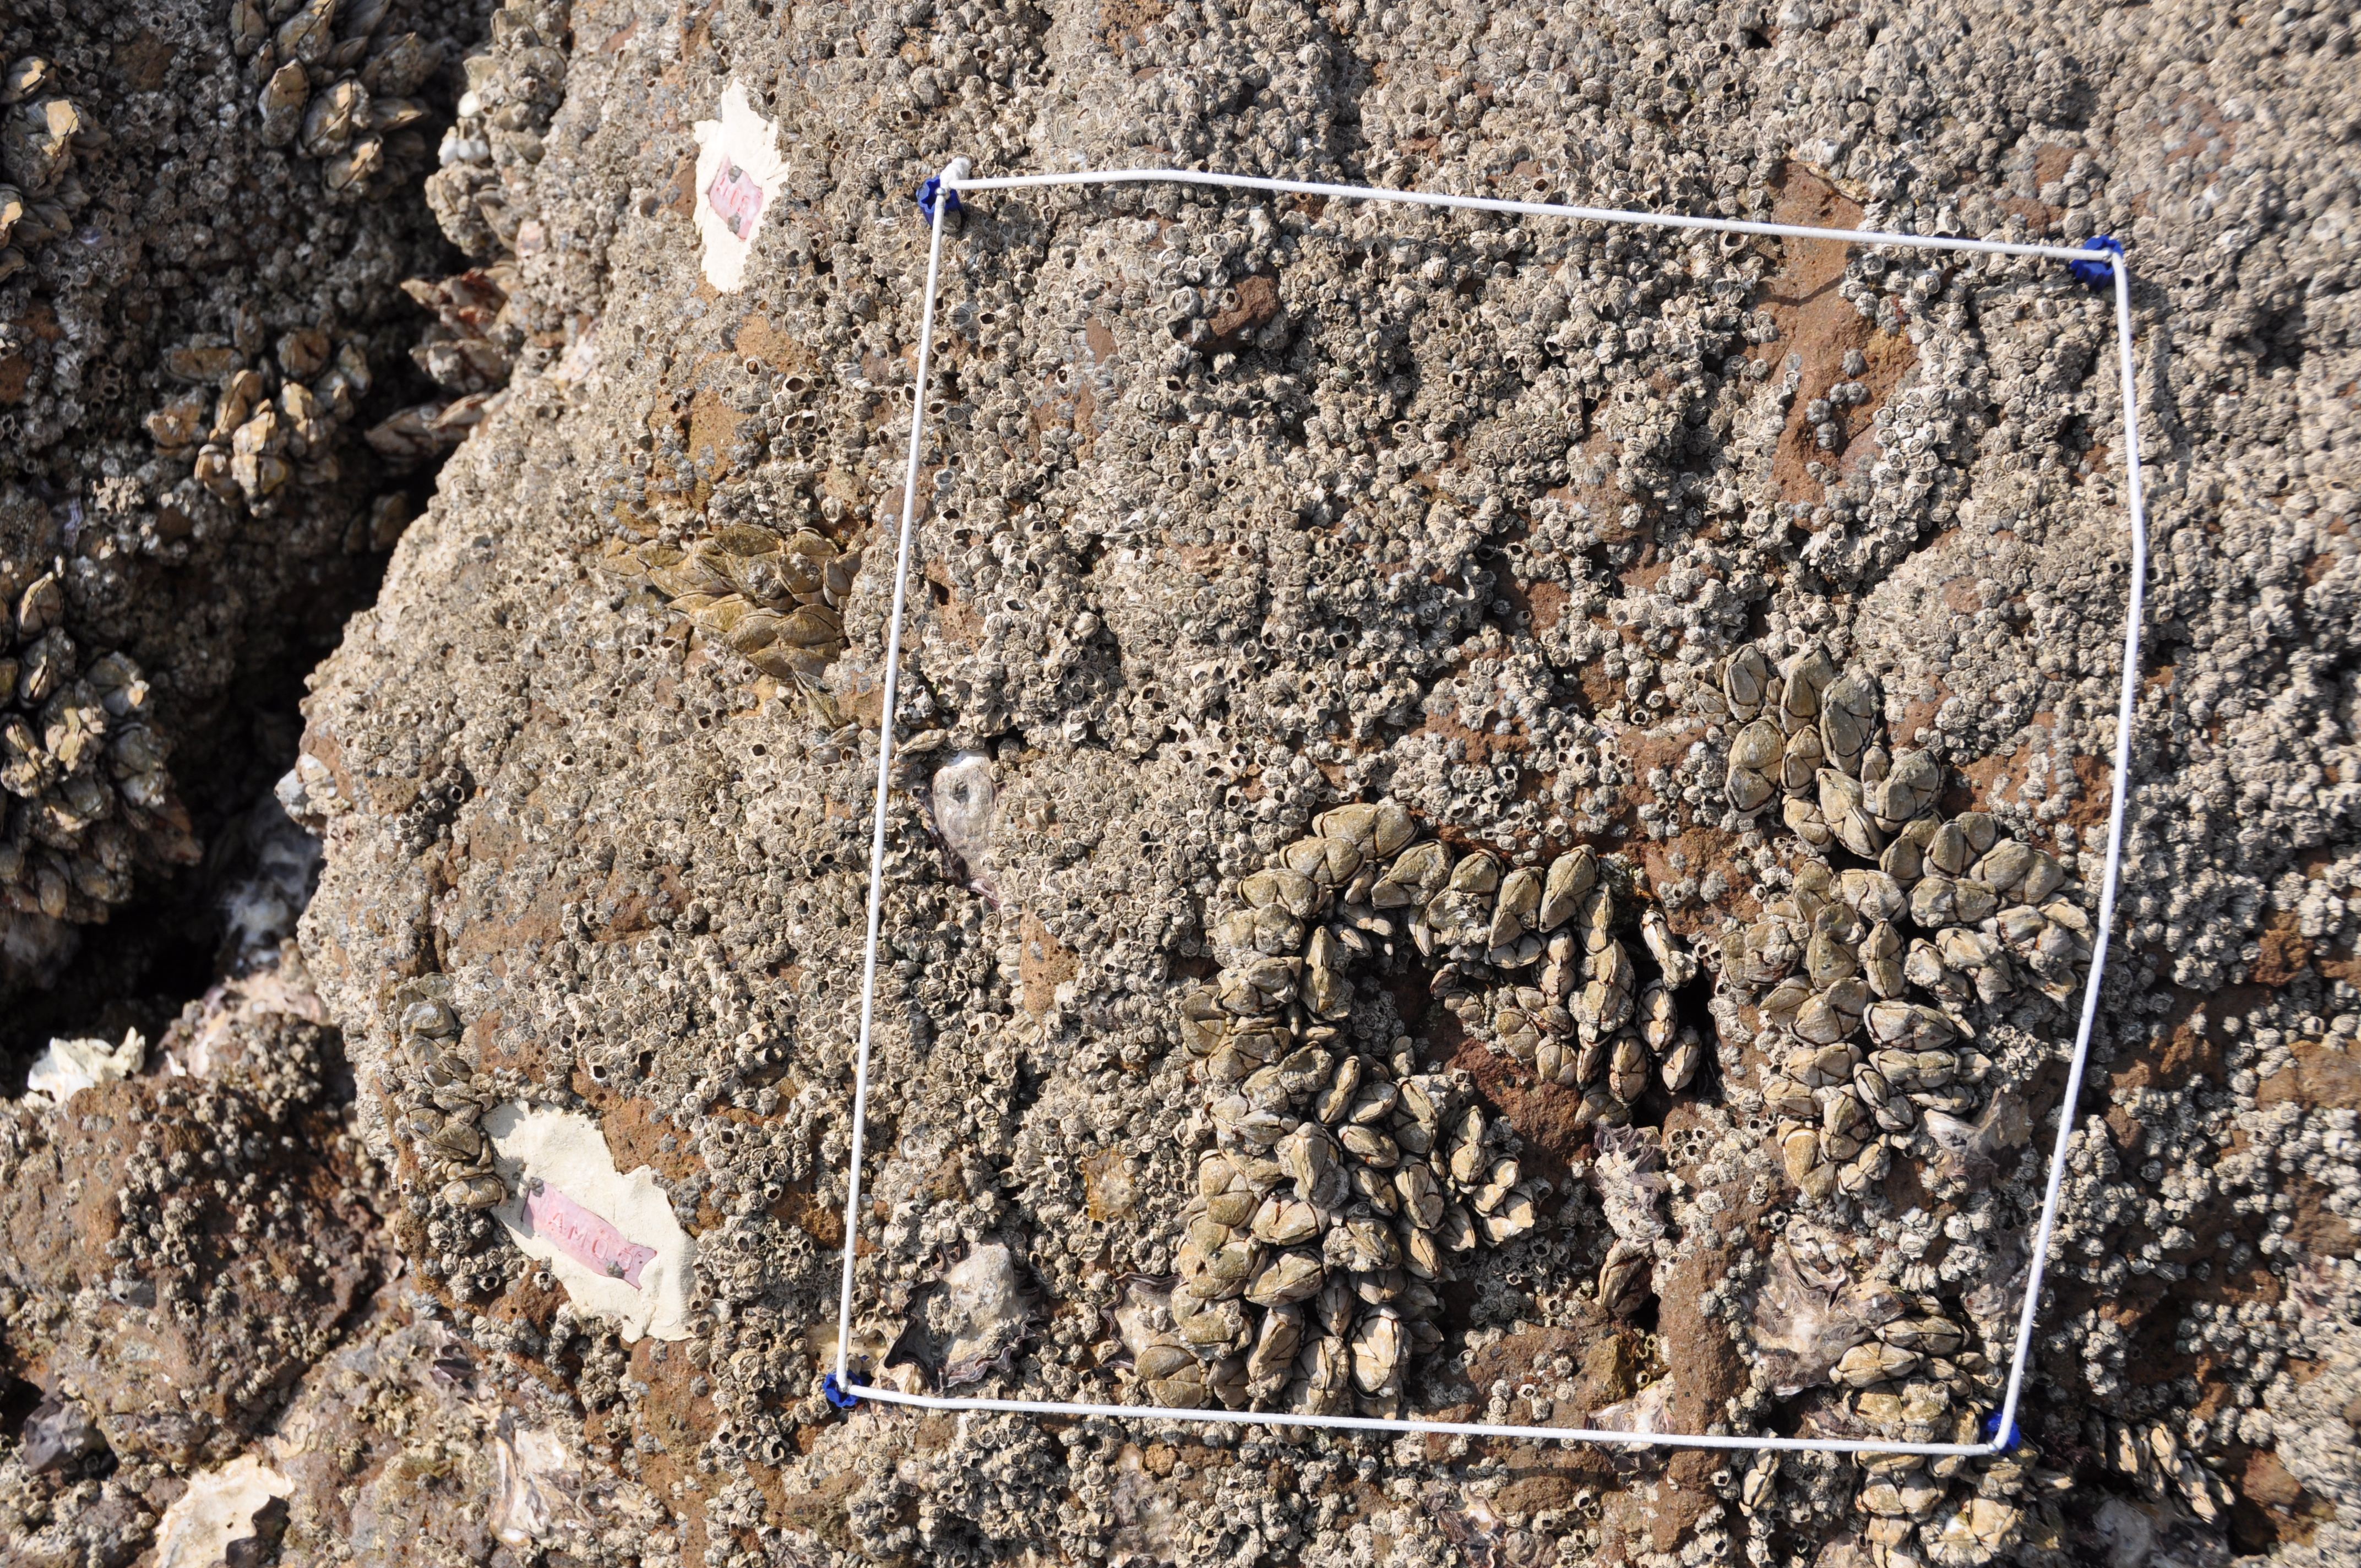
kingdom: Animalia
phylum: Arthropoda
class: Maxillopoda
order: Sessilia
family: Chthamalidae
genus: Chthamalus
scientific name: Chthamalus challengeri
